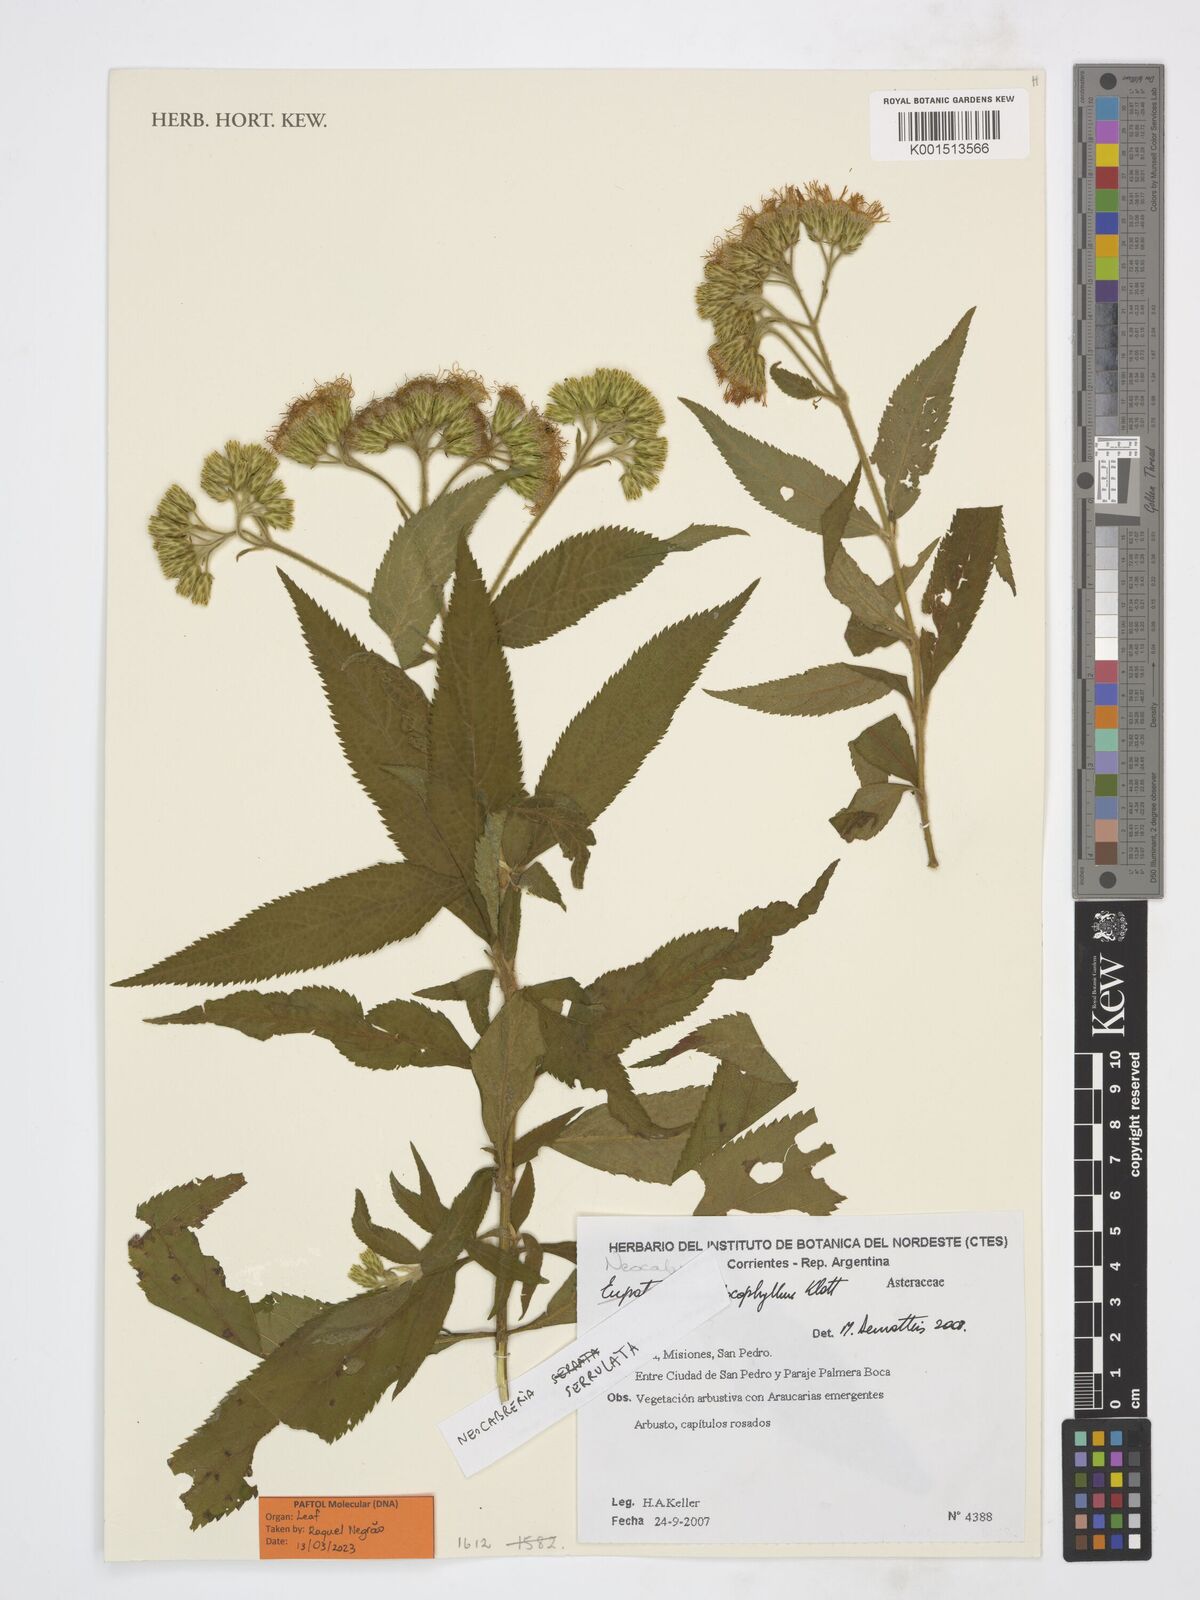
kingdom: Plantae
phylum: Tracheophyta
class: Magnoliopsida
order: Asterales
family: Asteraceae
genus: Neocabreria
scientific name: Neocabreria serrulata
